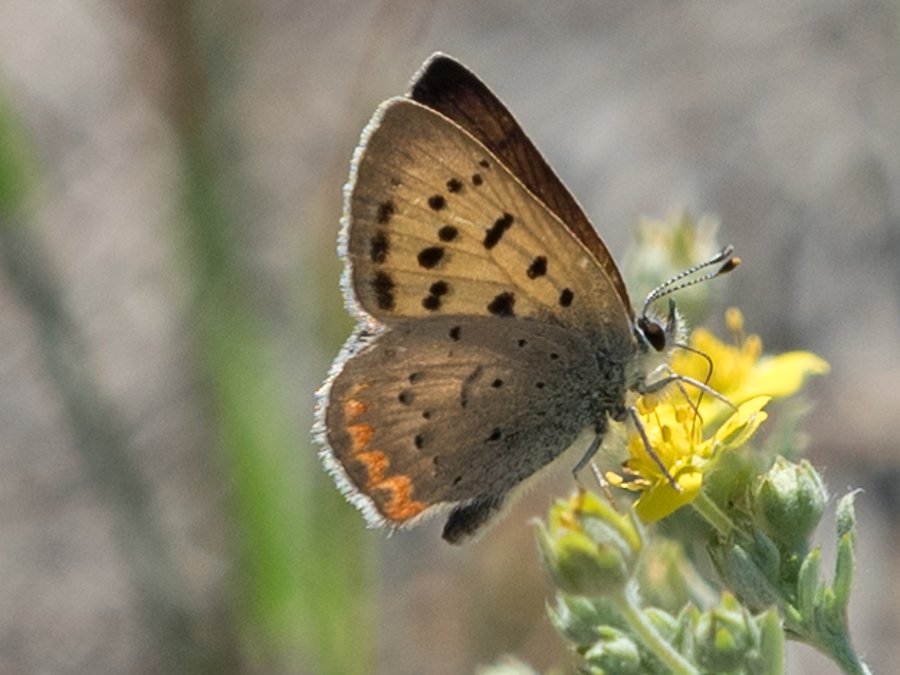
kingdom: Animalia
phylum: Arthropoda
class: Insecta
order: Lepidoptera
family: Sesiidae
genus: Sesia
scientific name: Sesia Lycaena helloides
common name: Purplish Copper
